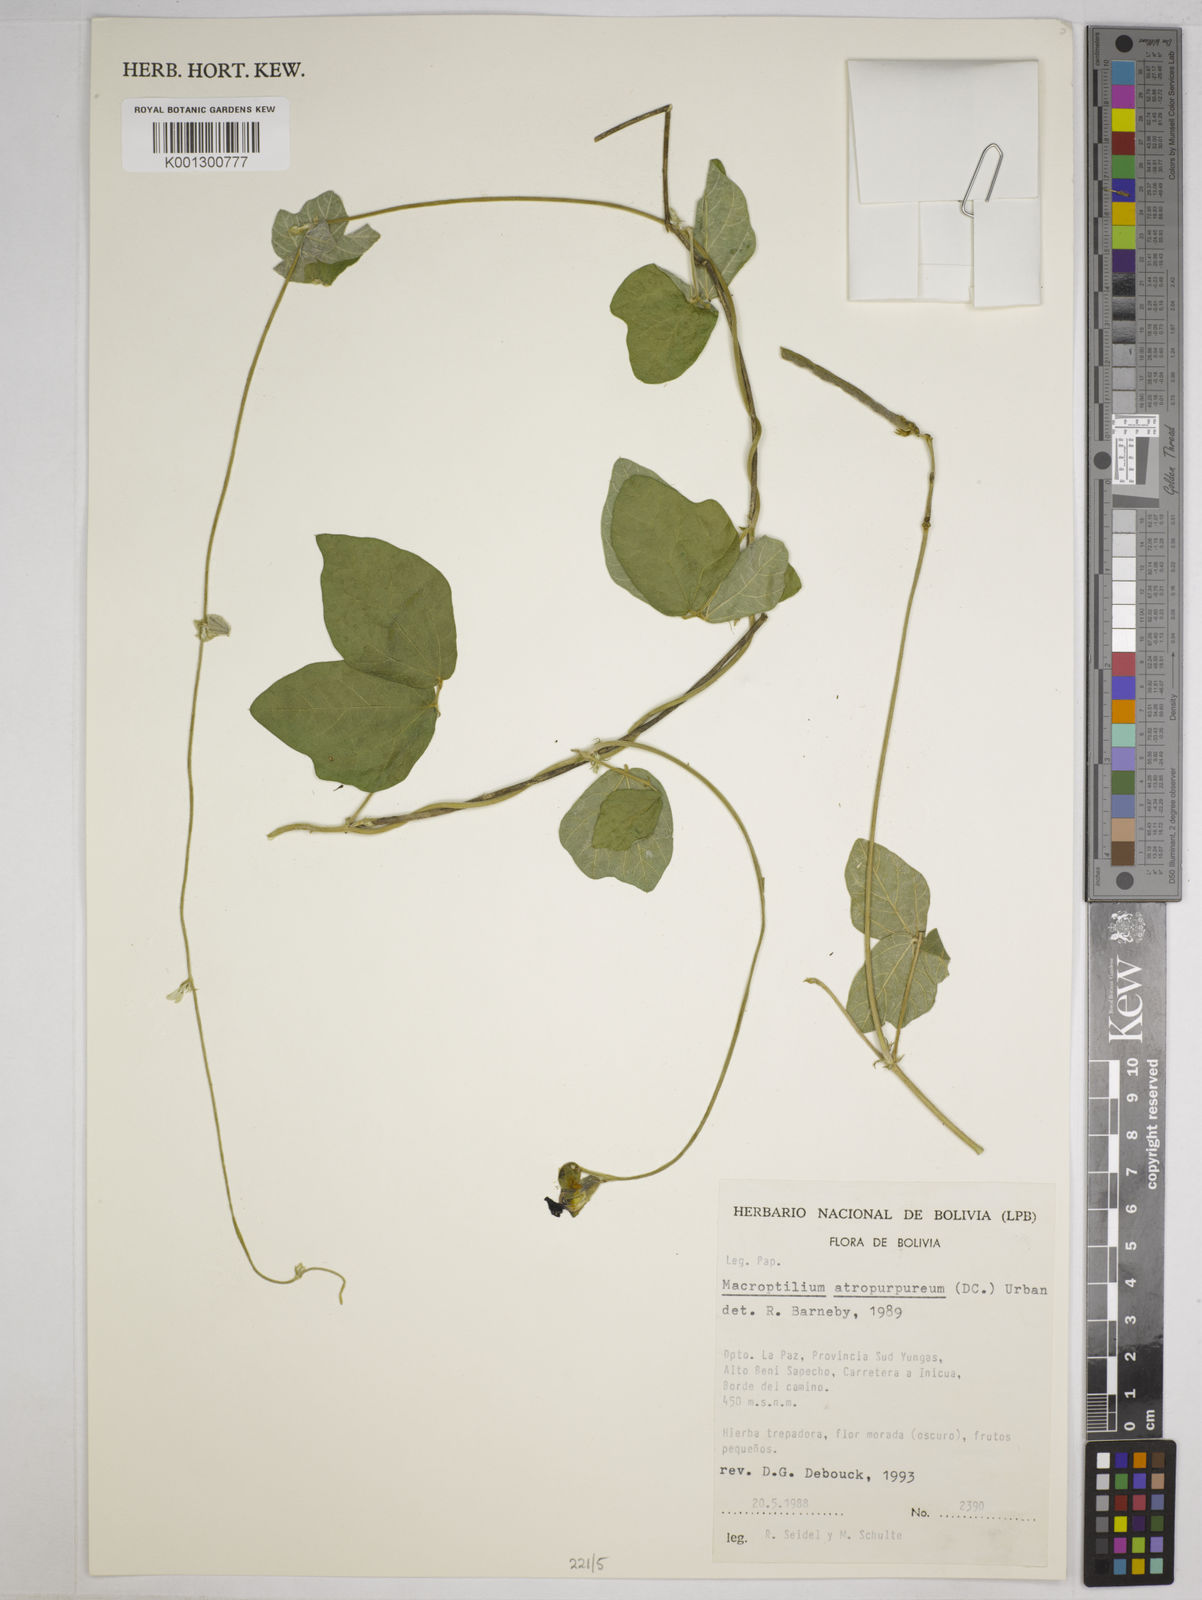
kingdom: Plantae
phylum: Tracheophyta
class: Magnoliopsida
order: Fabales
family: Fabaceae
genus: Macroptilium
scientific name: Macroptilium atropurpureum
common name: Purple bushbean
